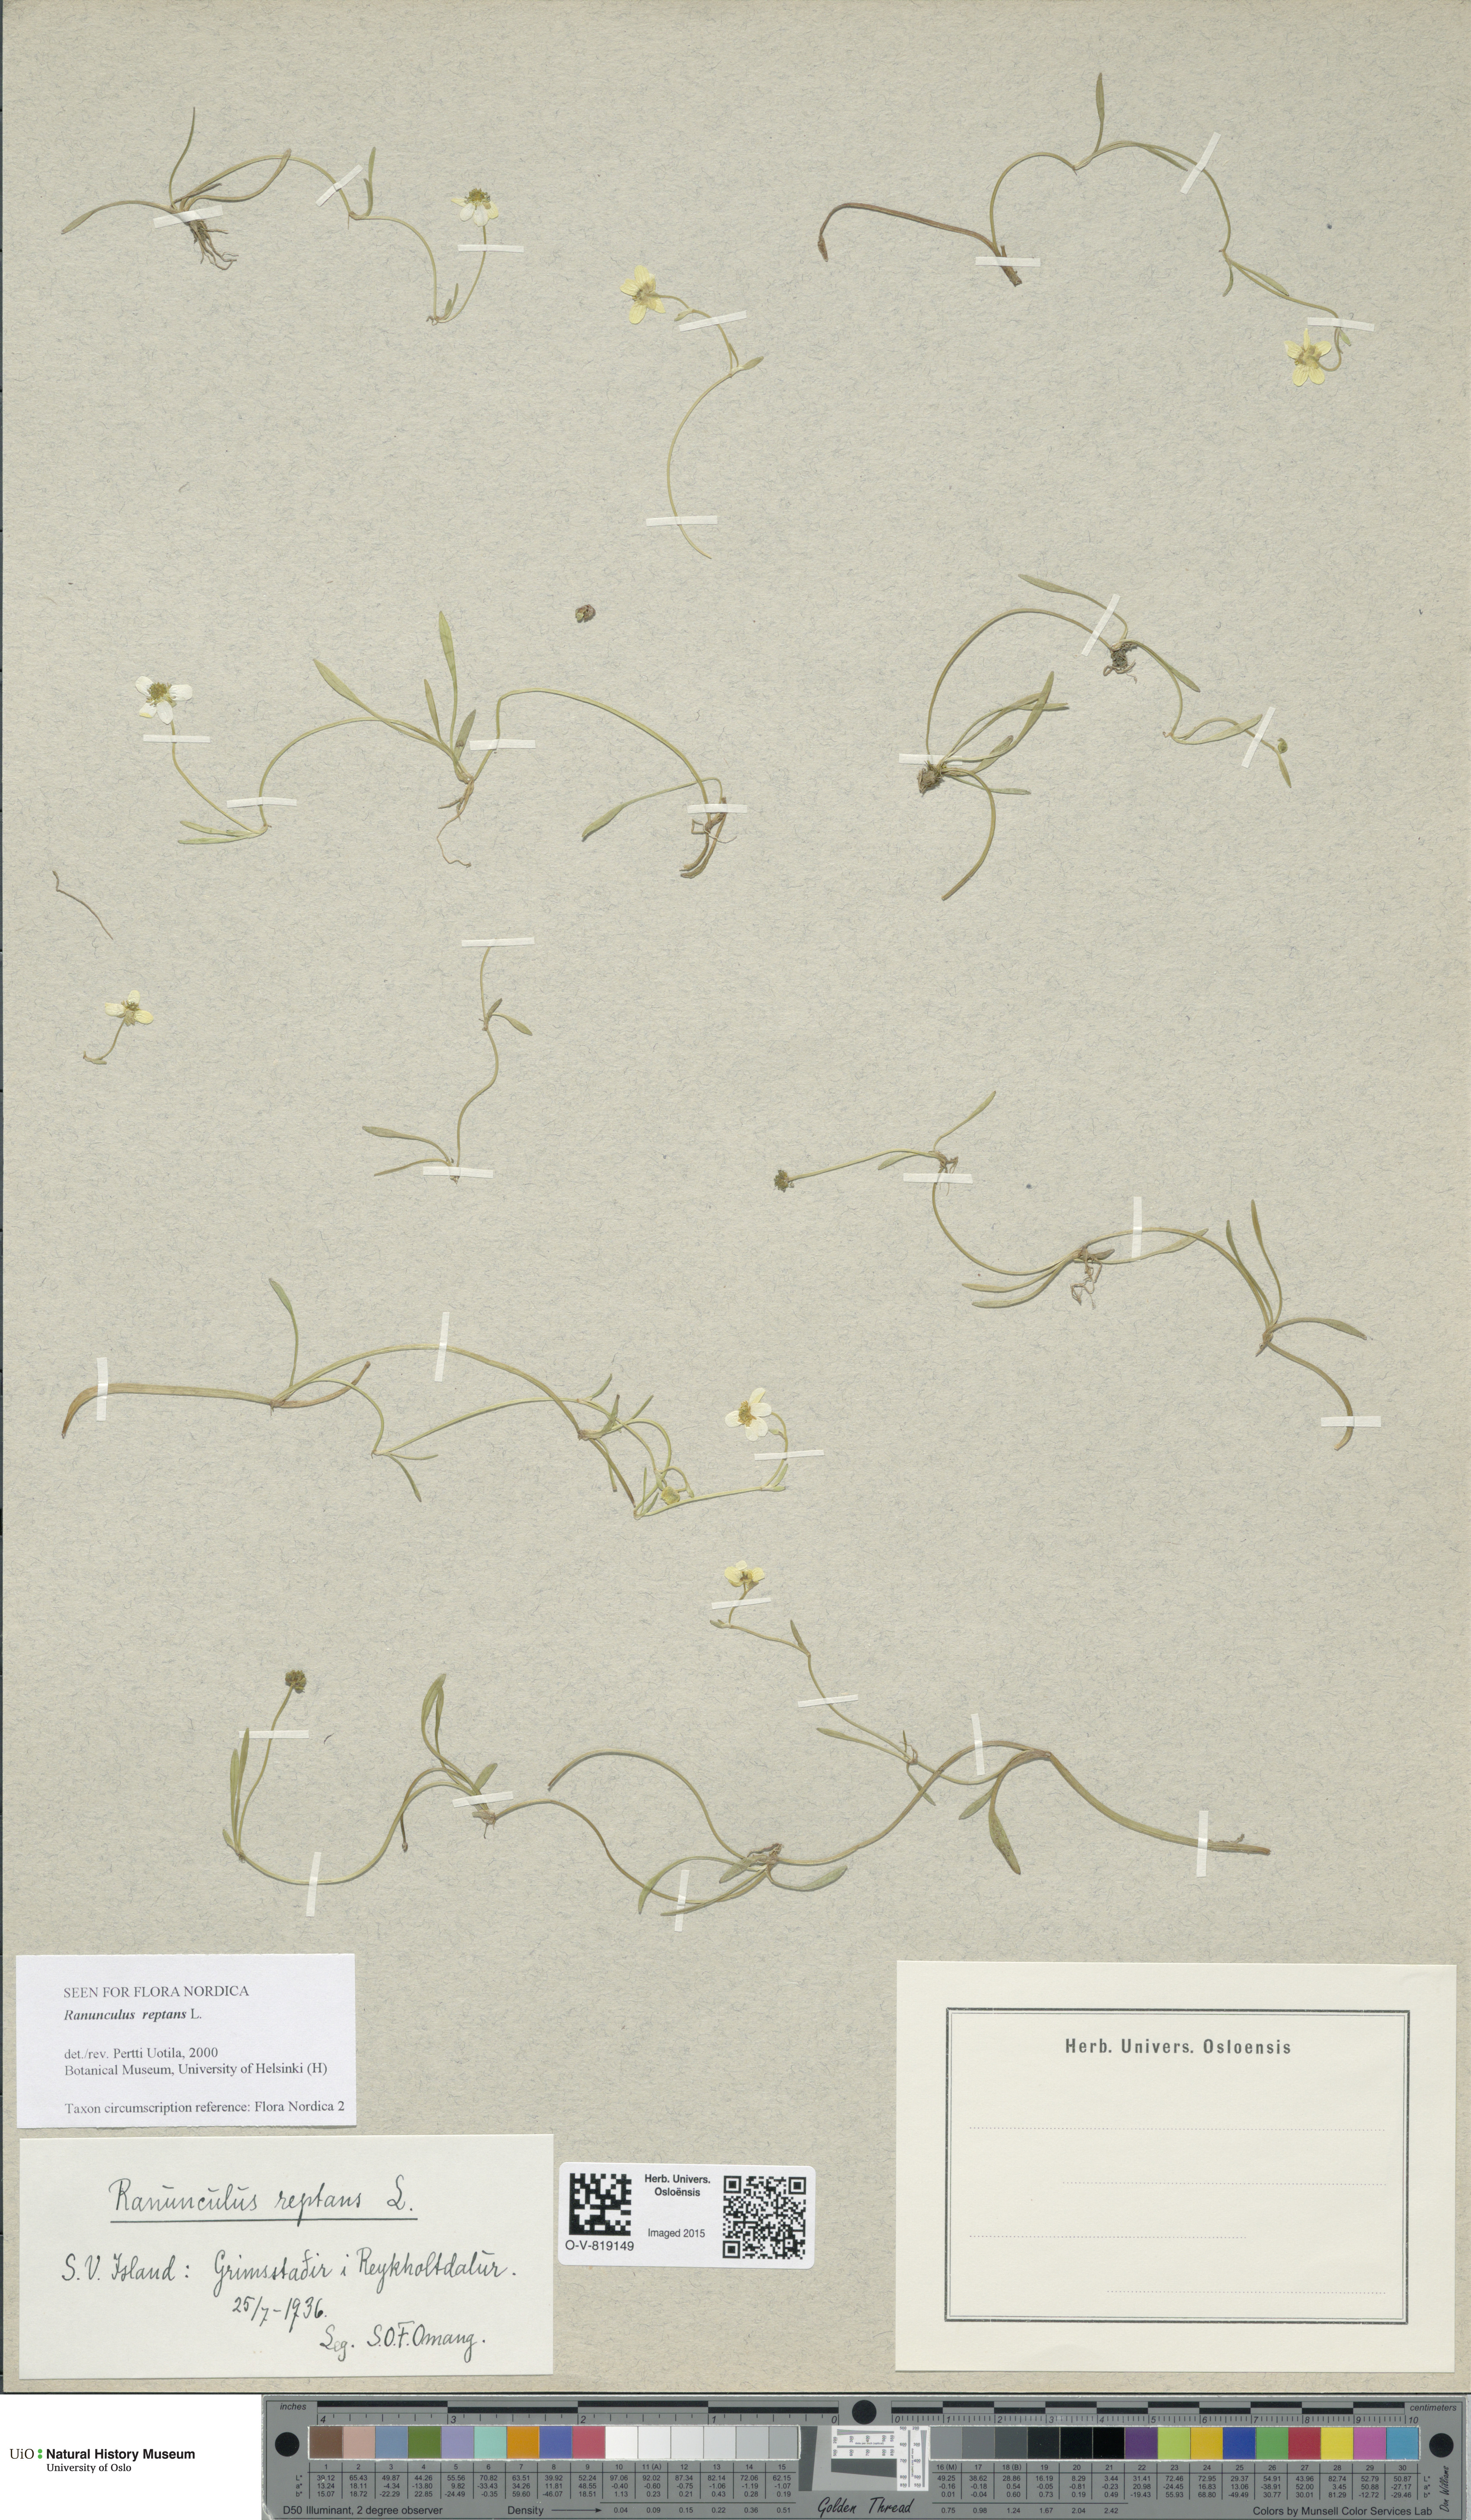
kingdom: Plantae
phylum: Tracheophyta
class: Magnoliopsida
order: Ranunculales
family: Ranunculaceae
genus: Ranunculus
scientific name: Ranunculus reptans
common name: Creeping spearwort
